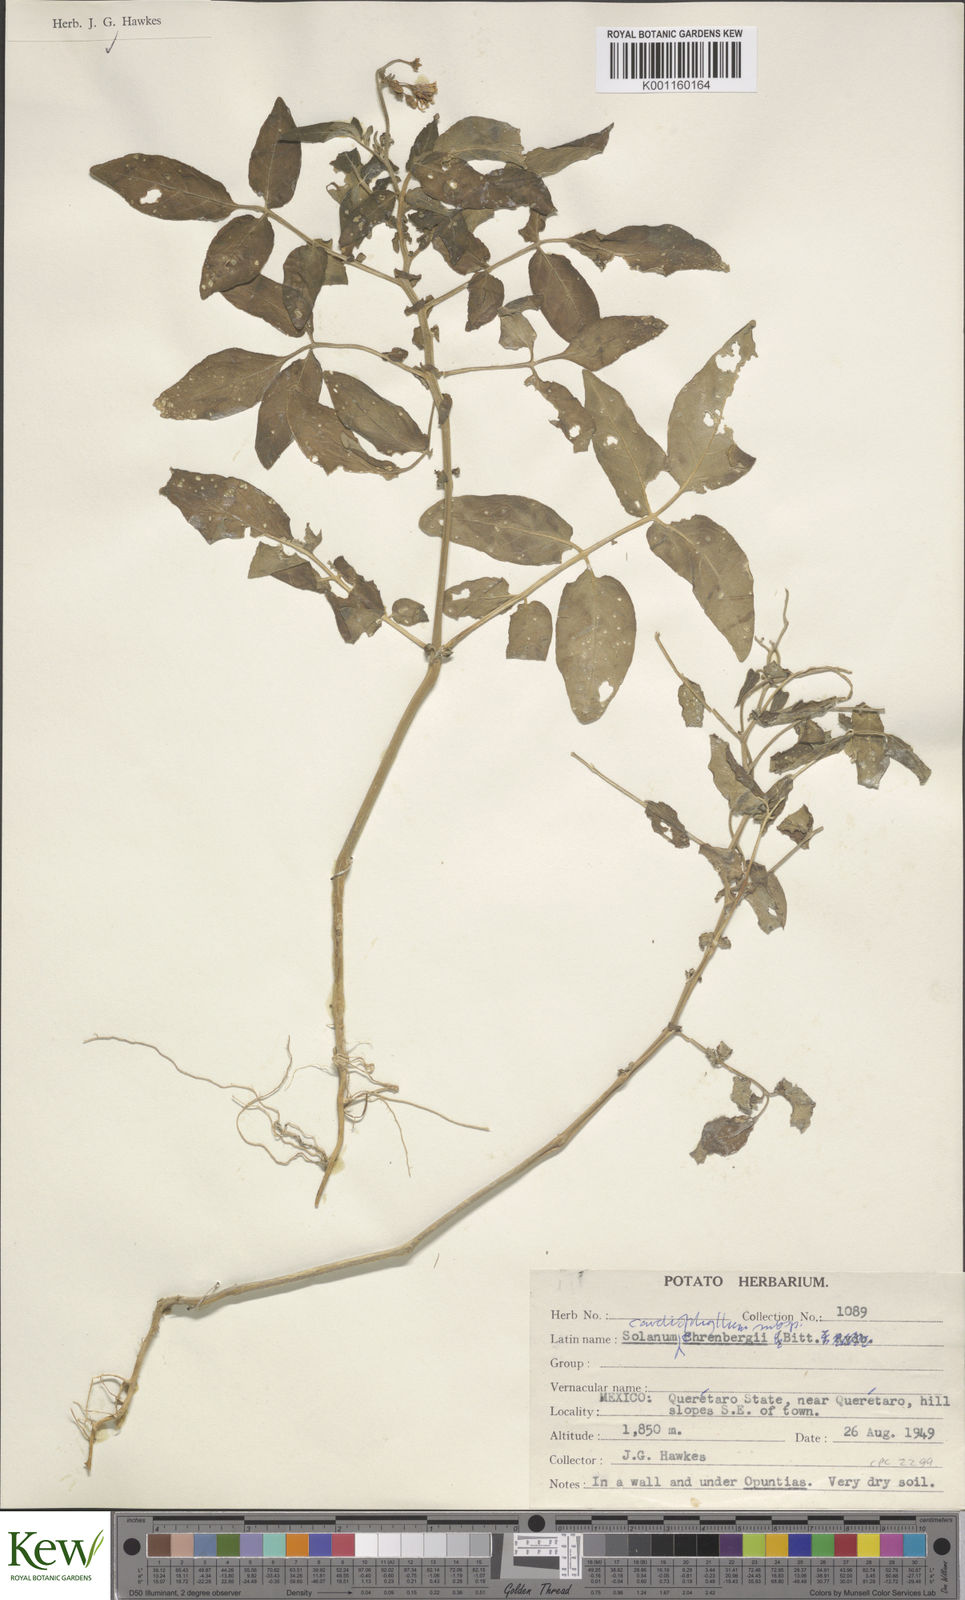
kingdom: Plantae
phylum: Tracheophyta
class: Magnoliopsida
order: Solanales
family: Solanaceae
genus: Solanum
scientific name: Solanum cardiophyllum
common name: Heartleaf horsenettle
